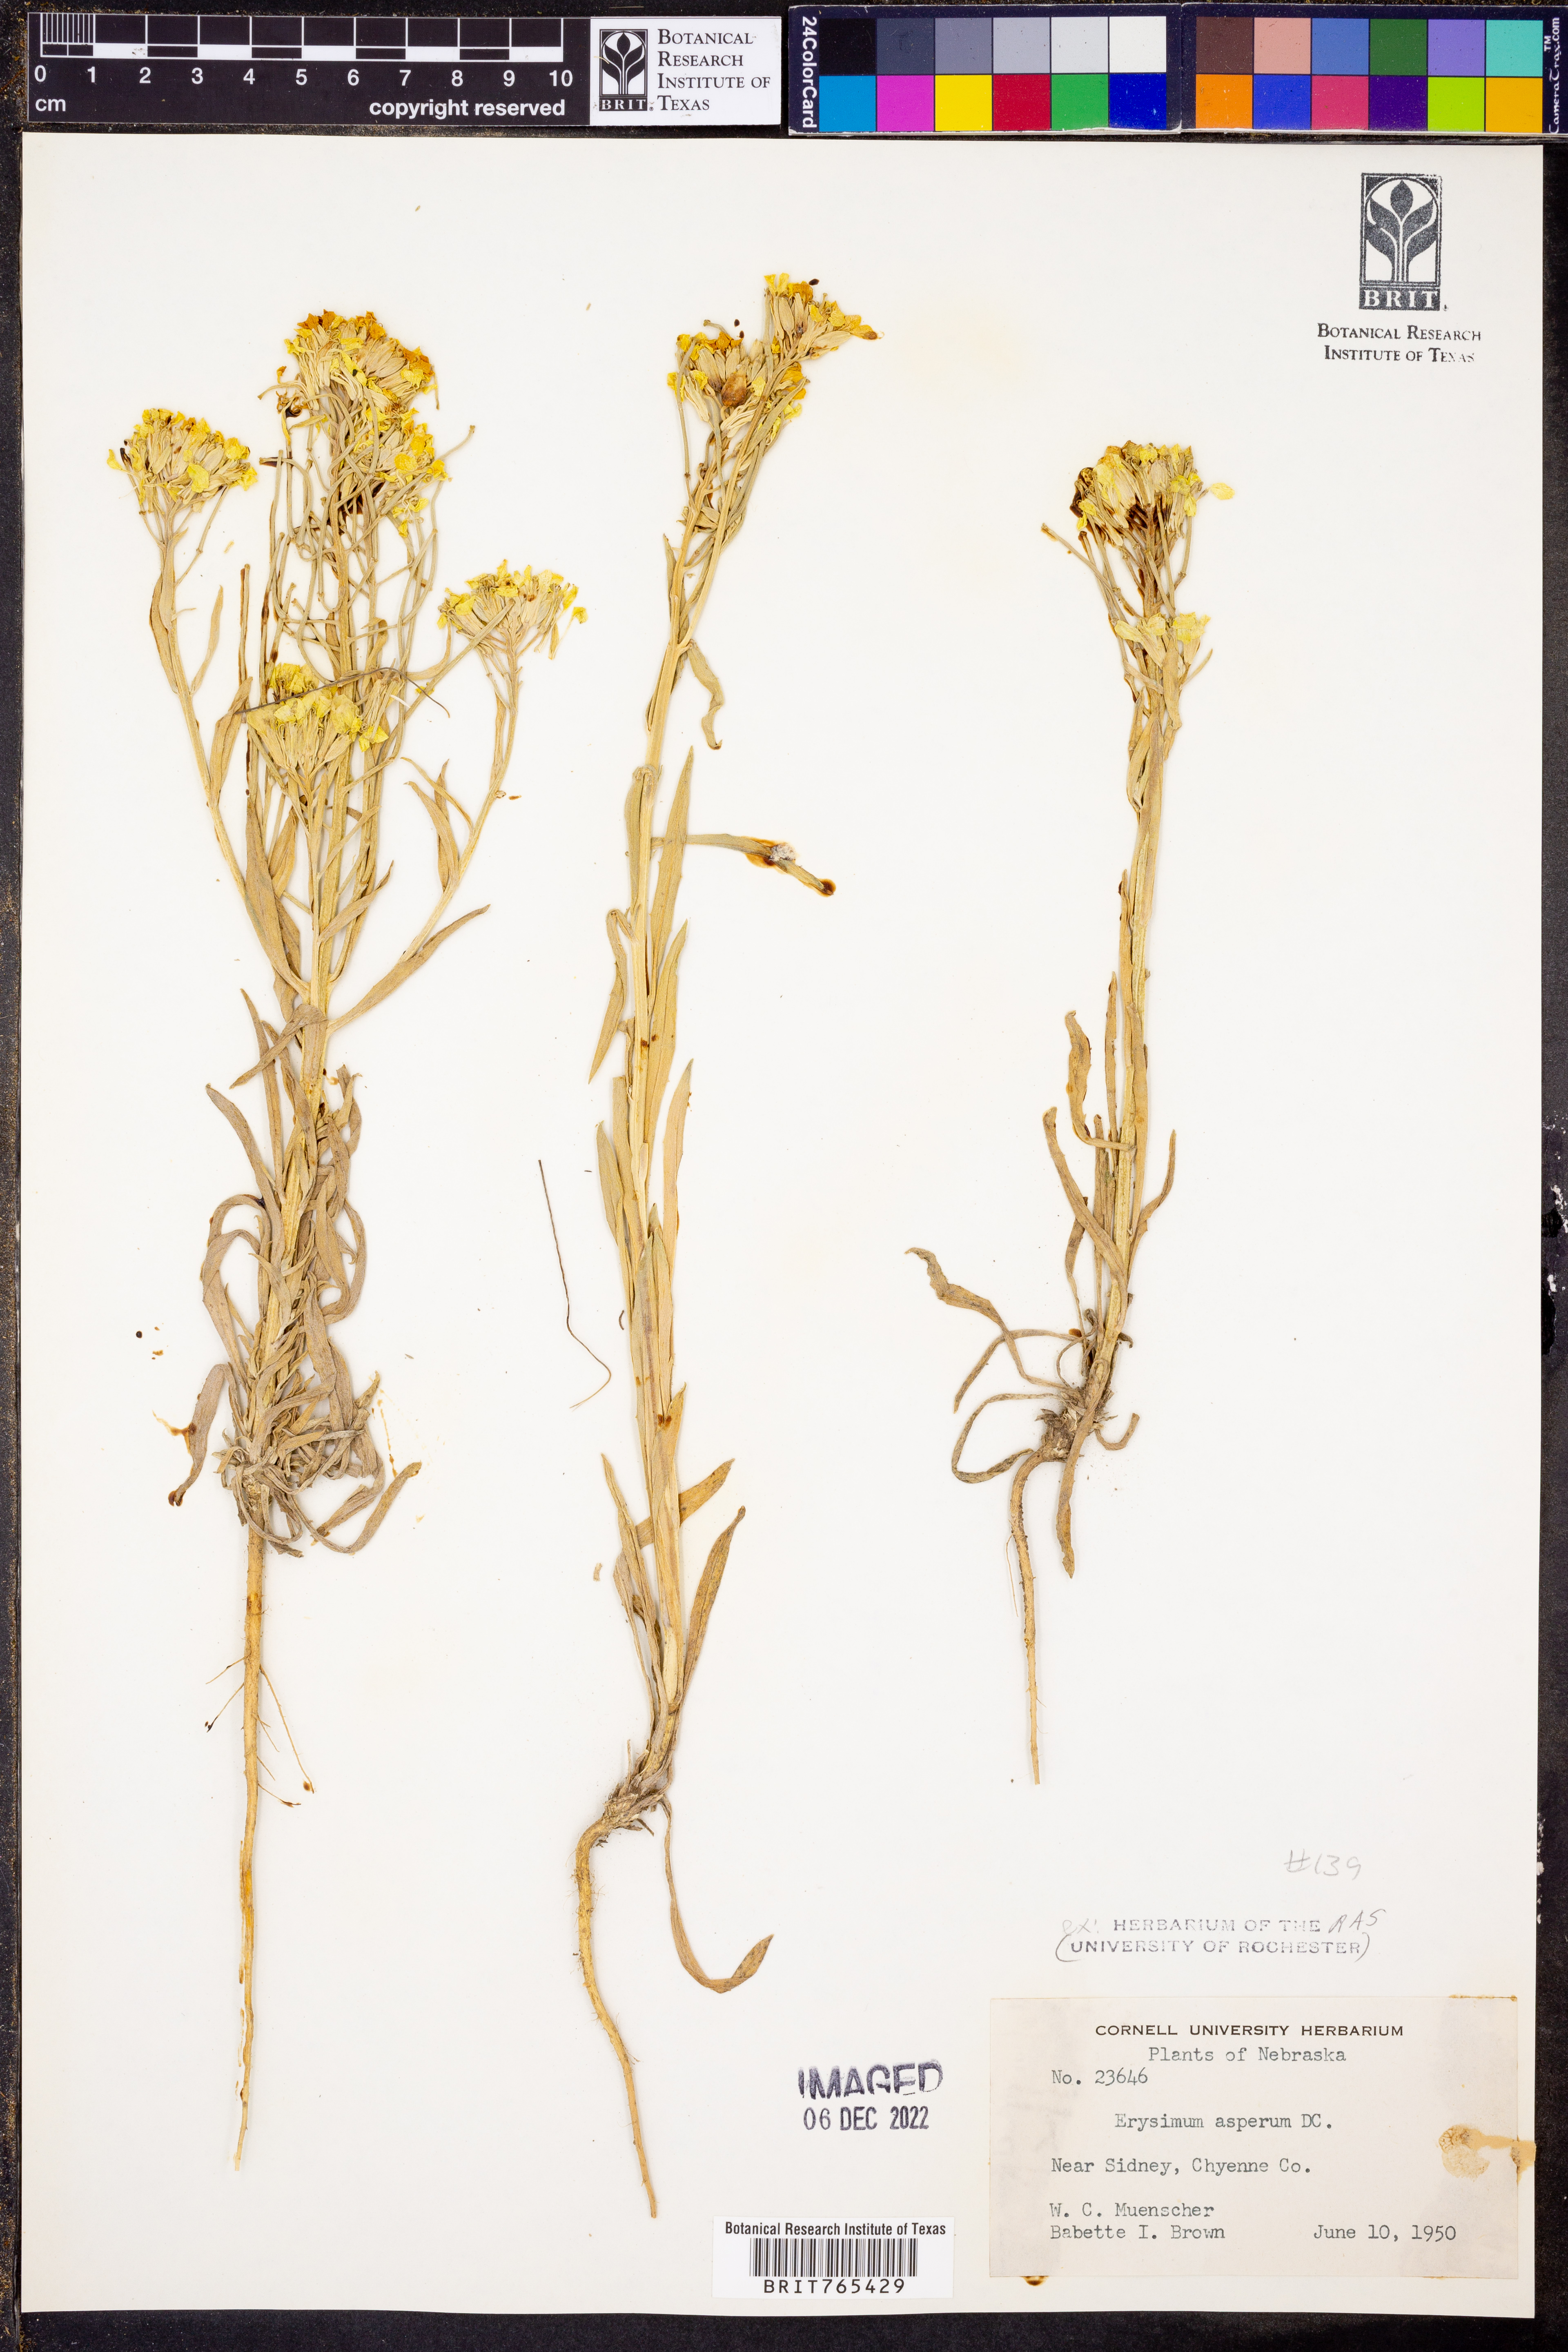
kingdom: Plantae
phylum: Tracheophyta
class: Magnoliopsida
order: Brassicales
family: Brassicaceae
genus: Erysimum
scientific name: Erysimum asperum
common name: Western wallflower
